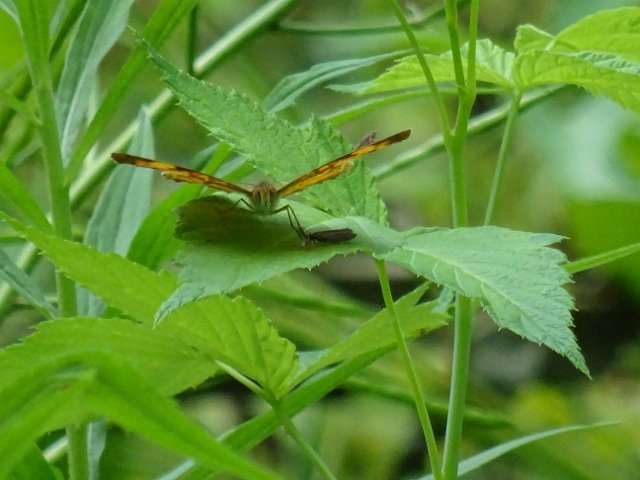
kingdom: Animalia
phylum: Arthropoda
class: Insecta
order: Lepidoptera
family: Nymphalidae
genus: Phyciodes
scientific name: Phyciodes
